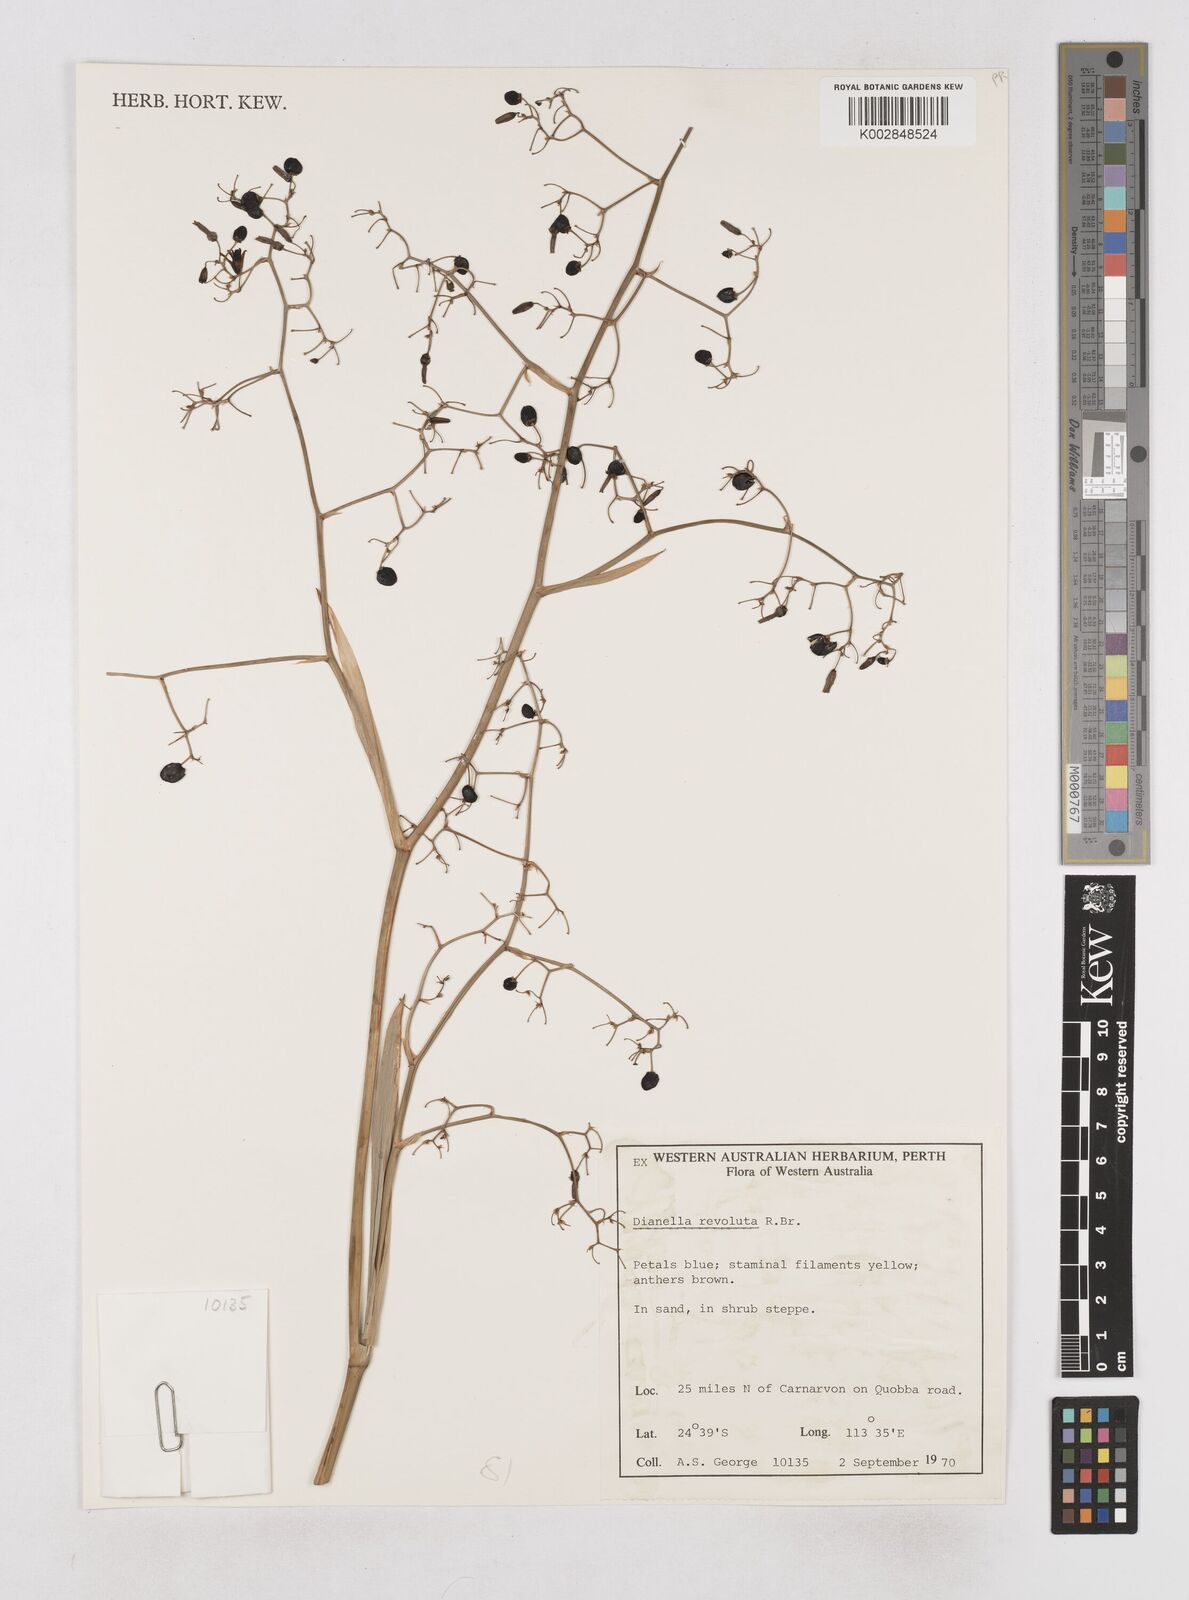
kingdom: Plantae
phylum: Tracheophyta
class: Liliopsida
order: Asparagales
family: Asphodelaceae
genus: Dianella
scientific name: Dianella revoluta
